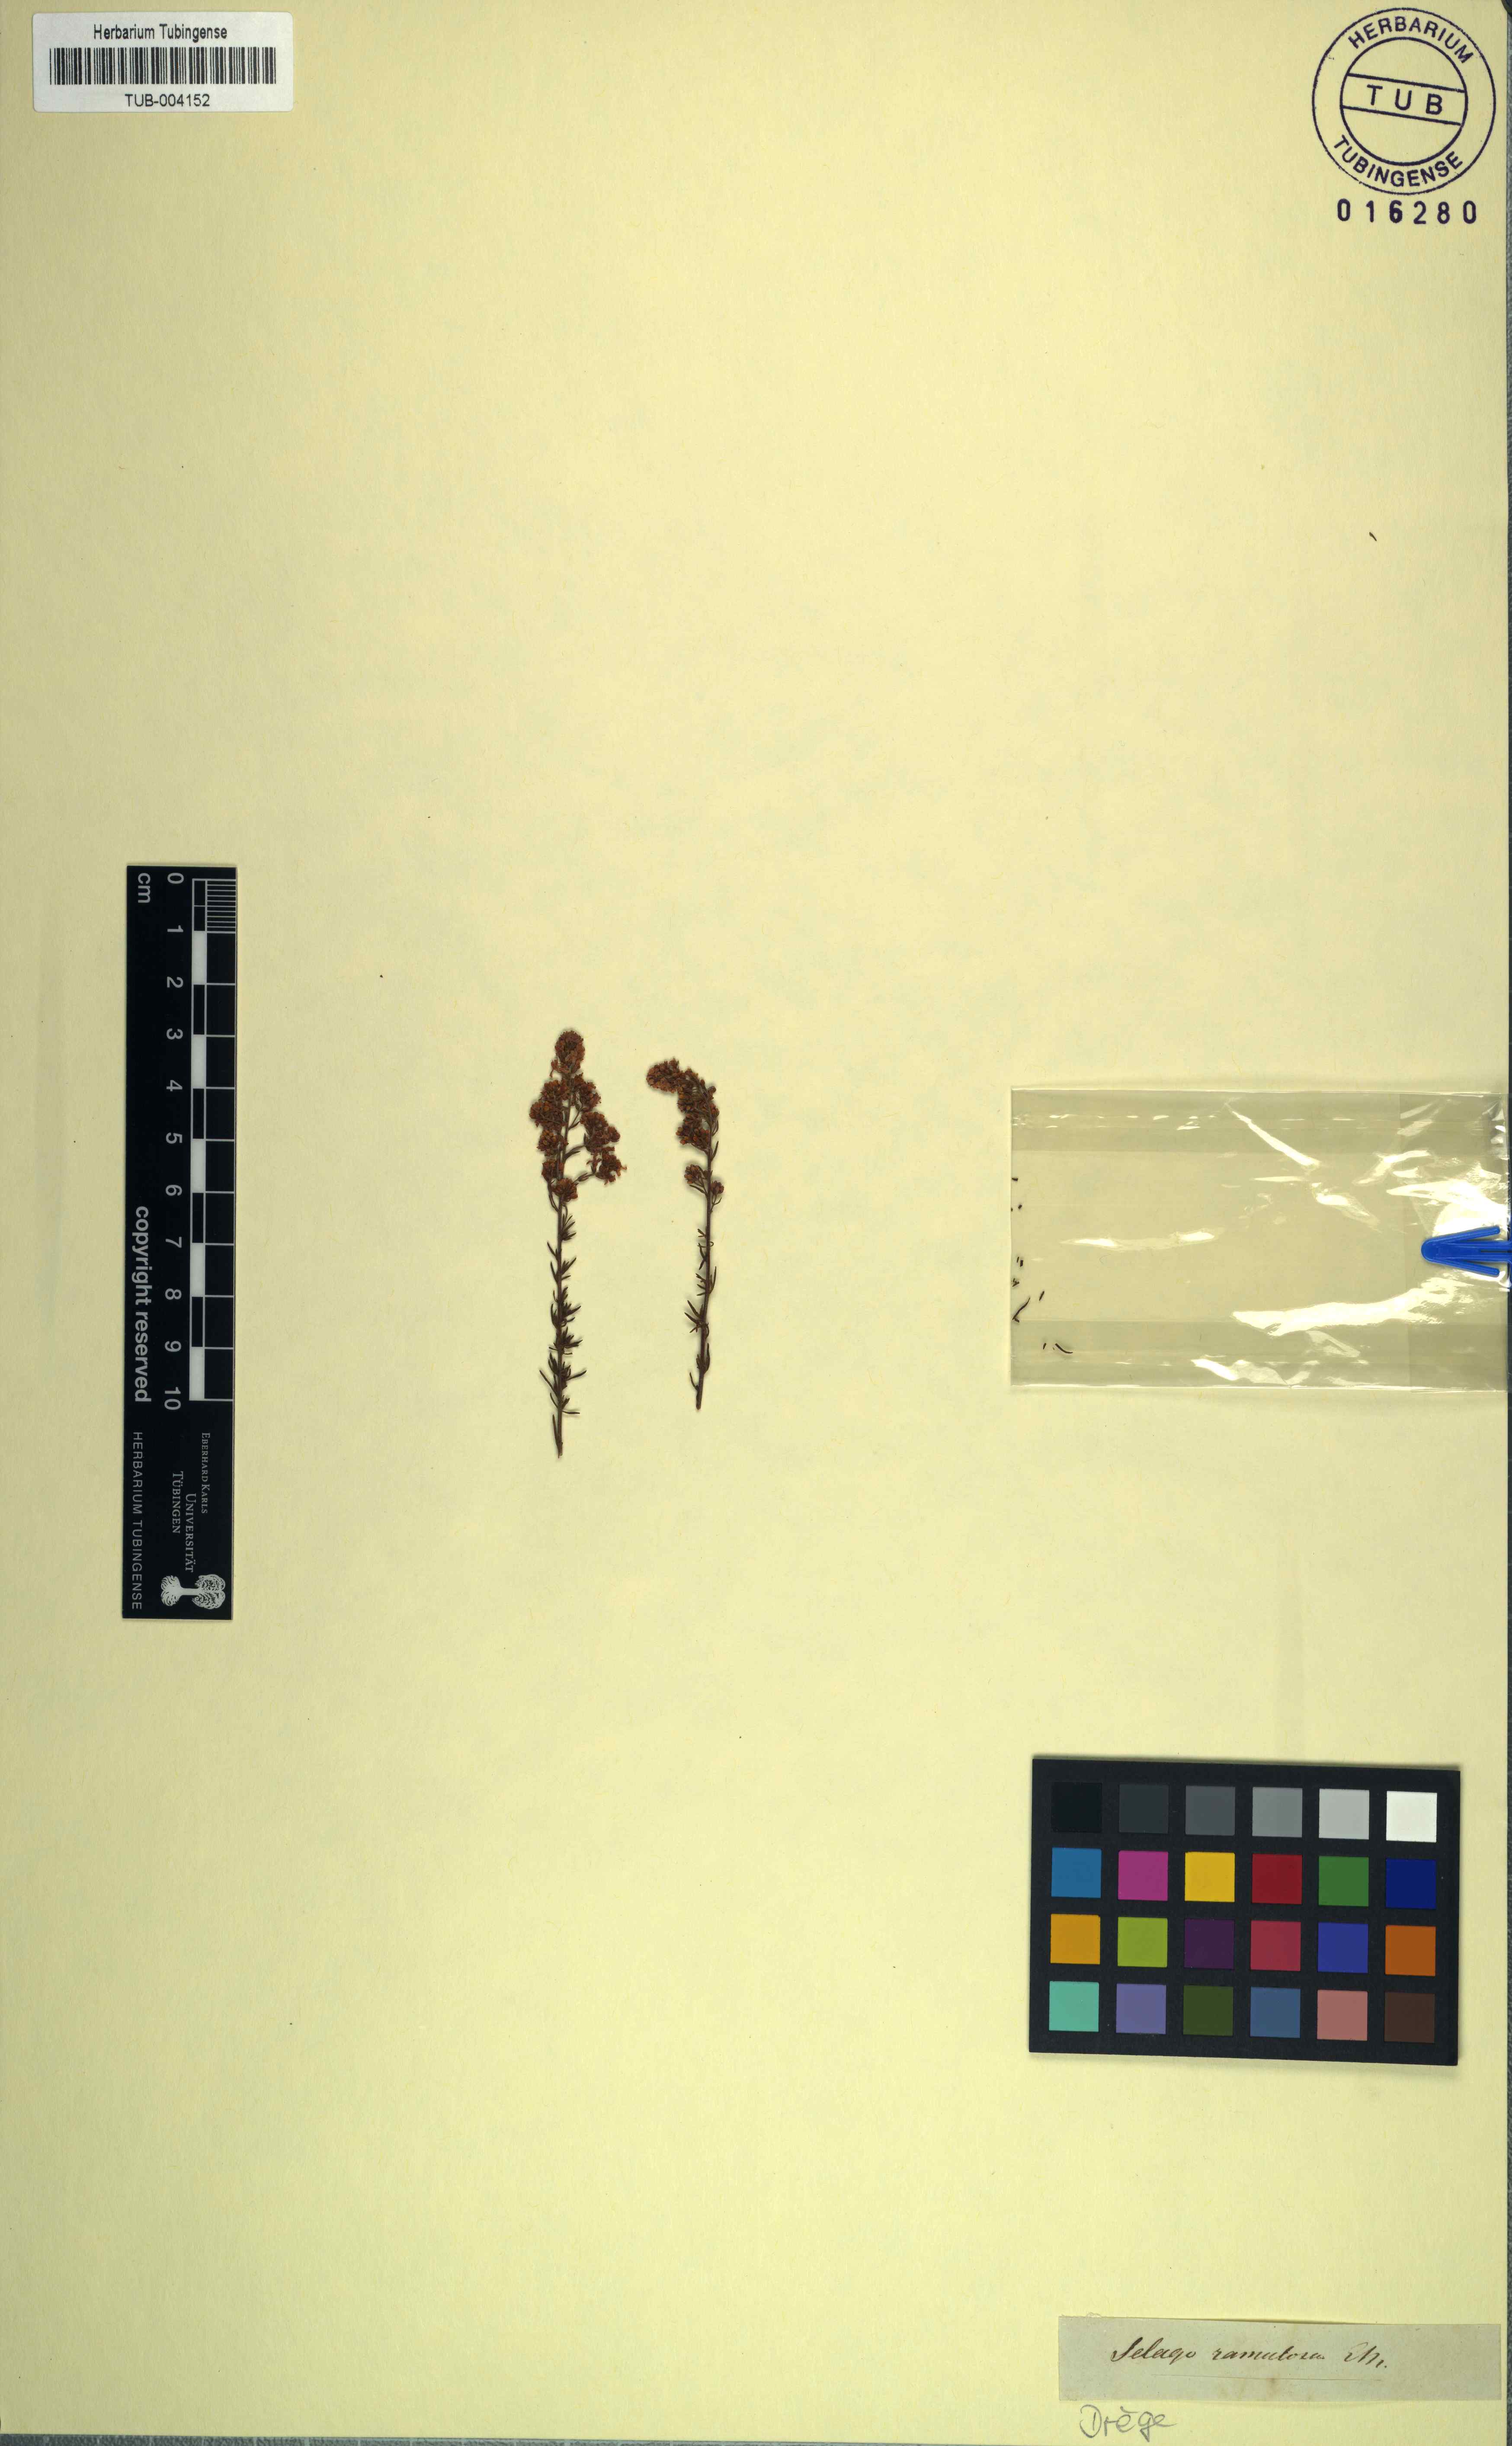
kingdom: Plantae
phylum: Tracheophyta
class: Magnoliopsida
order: Lamiales
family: Scrophulariaceae
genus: Selago
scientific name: Selago canescens
